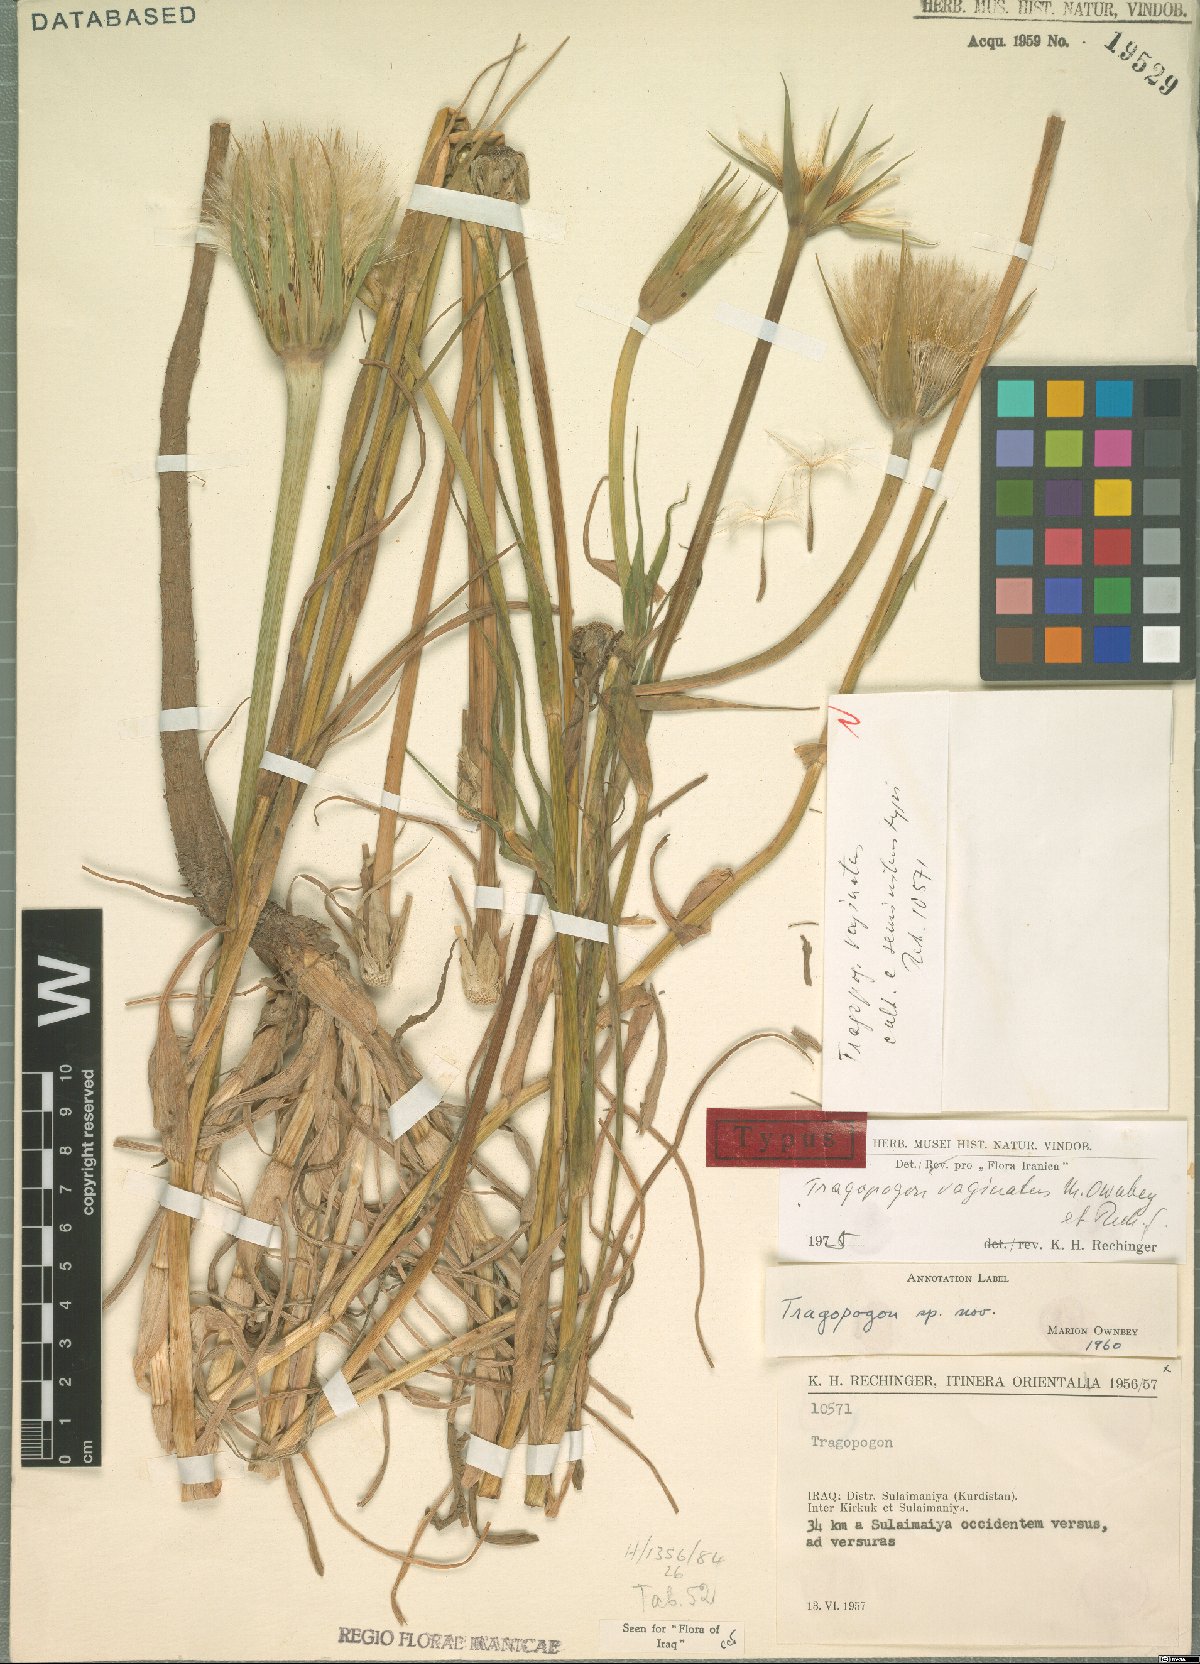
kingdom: Plantae
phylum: Tracheophyta
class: Magnoliopsida
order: Asterales
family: Asteraceae
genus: Tragopogon
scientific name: Tragopogon vaginatus
